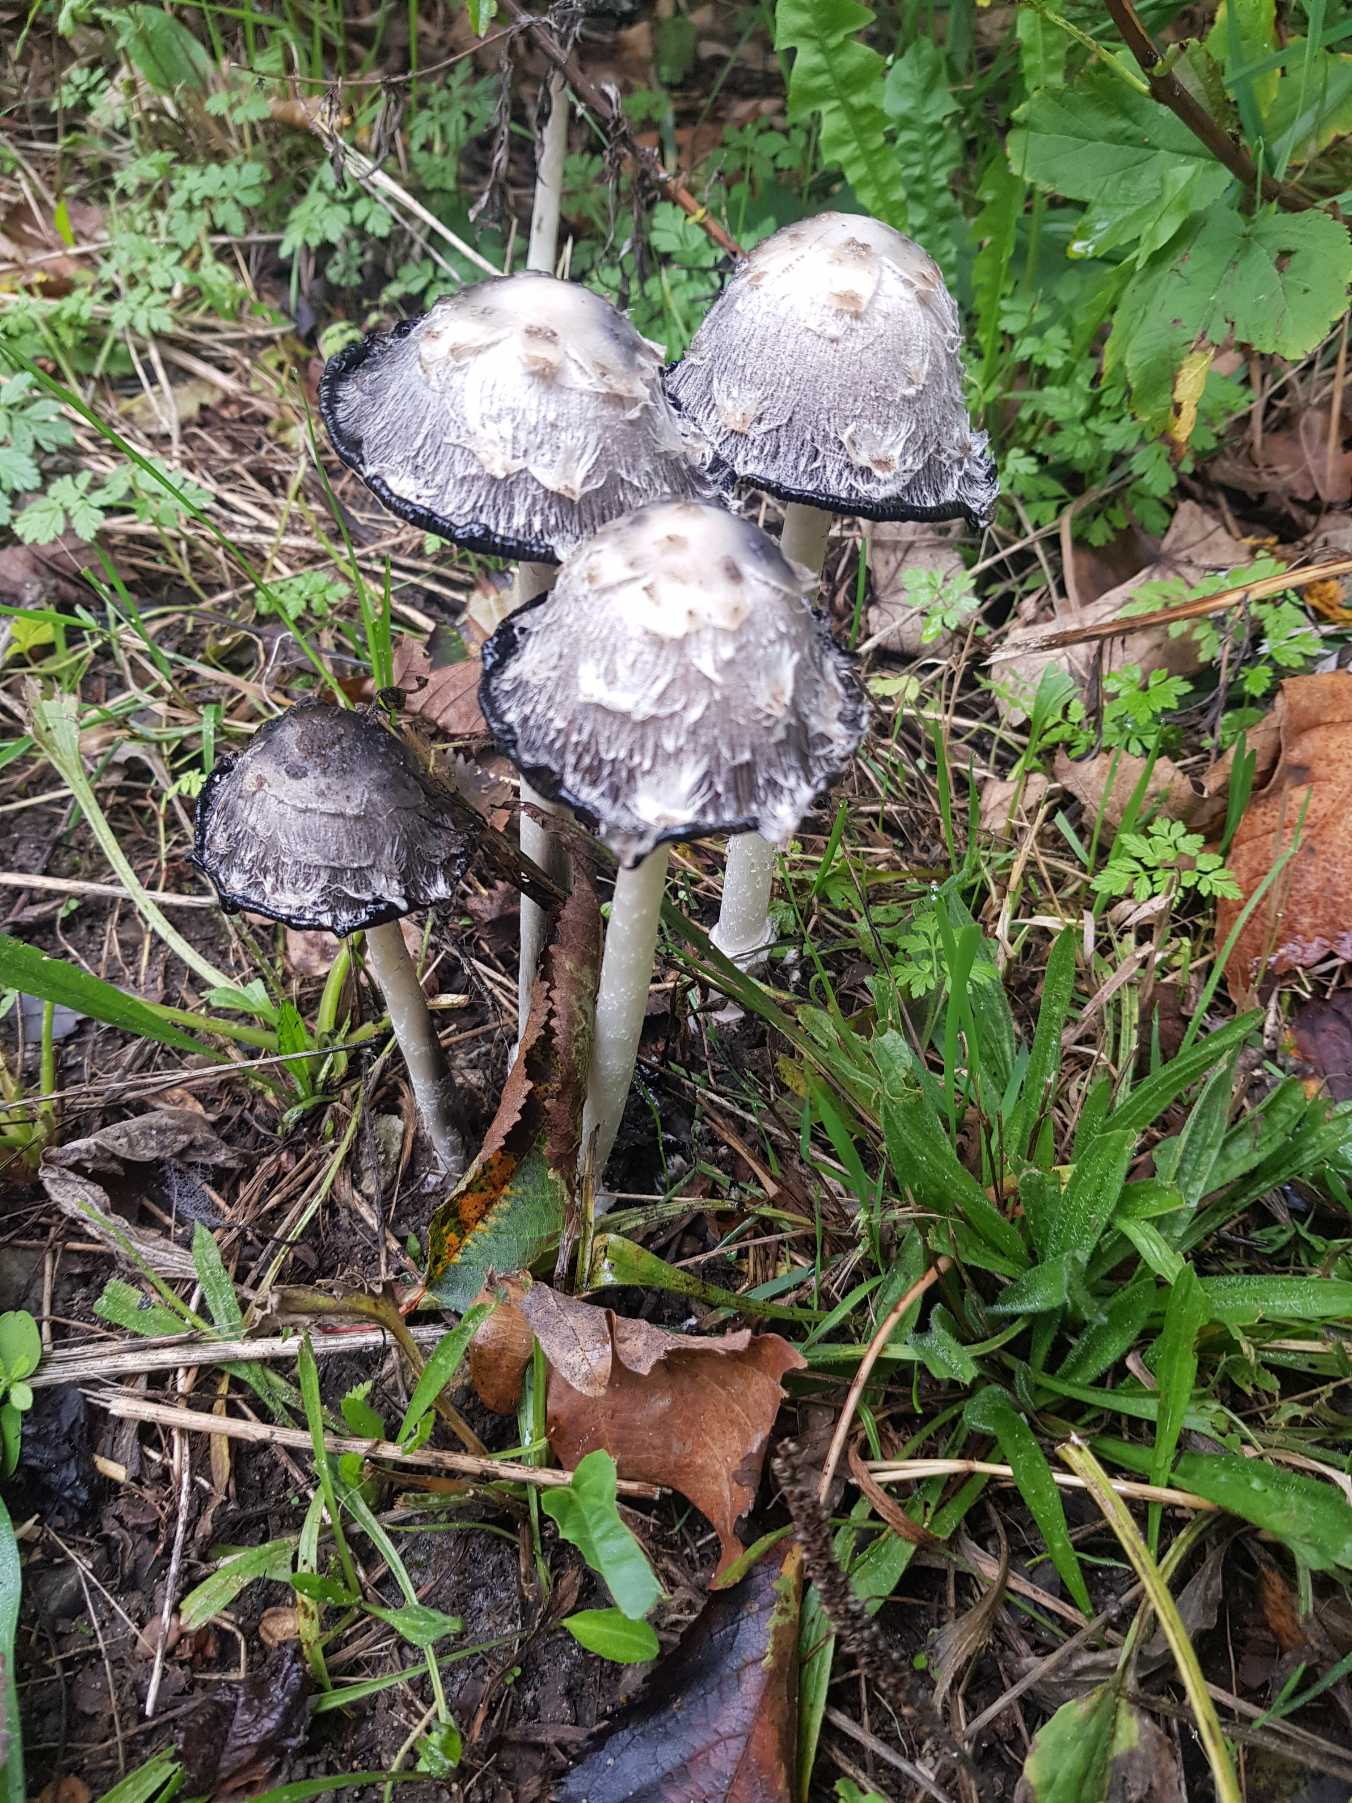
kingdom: Fungi
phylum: Basidiomycota
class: Agaricomycetes
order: Agaricales
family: Agaricaceae
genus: Coprinus
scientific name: Coprinus comatus
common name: Stor parykhat
